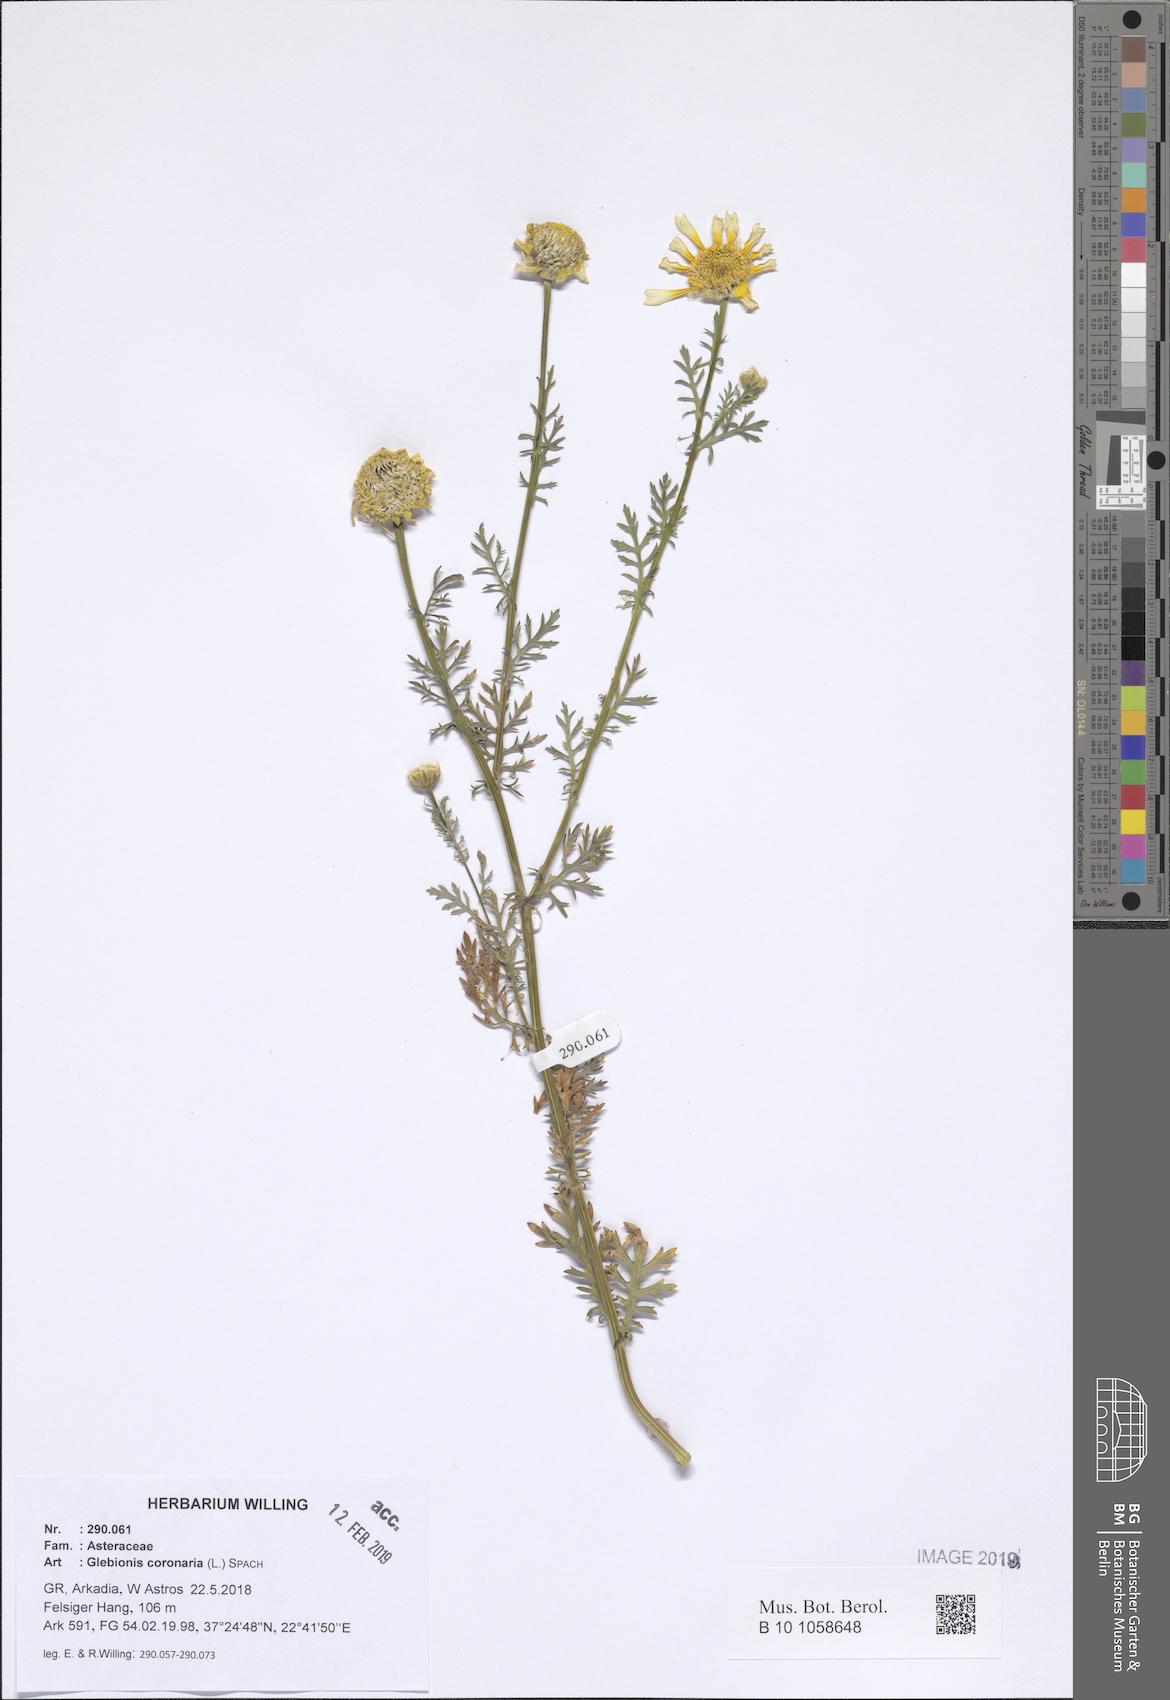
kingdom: Plantae
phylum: Tracheophyta
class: Magnoliopsida
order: Asterales
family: Asteraceae
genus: Glebionis
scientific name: Glebionis coronaria
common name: Crowndaisy
